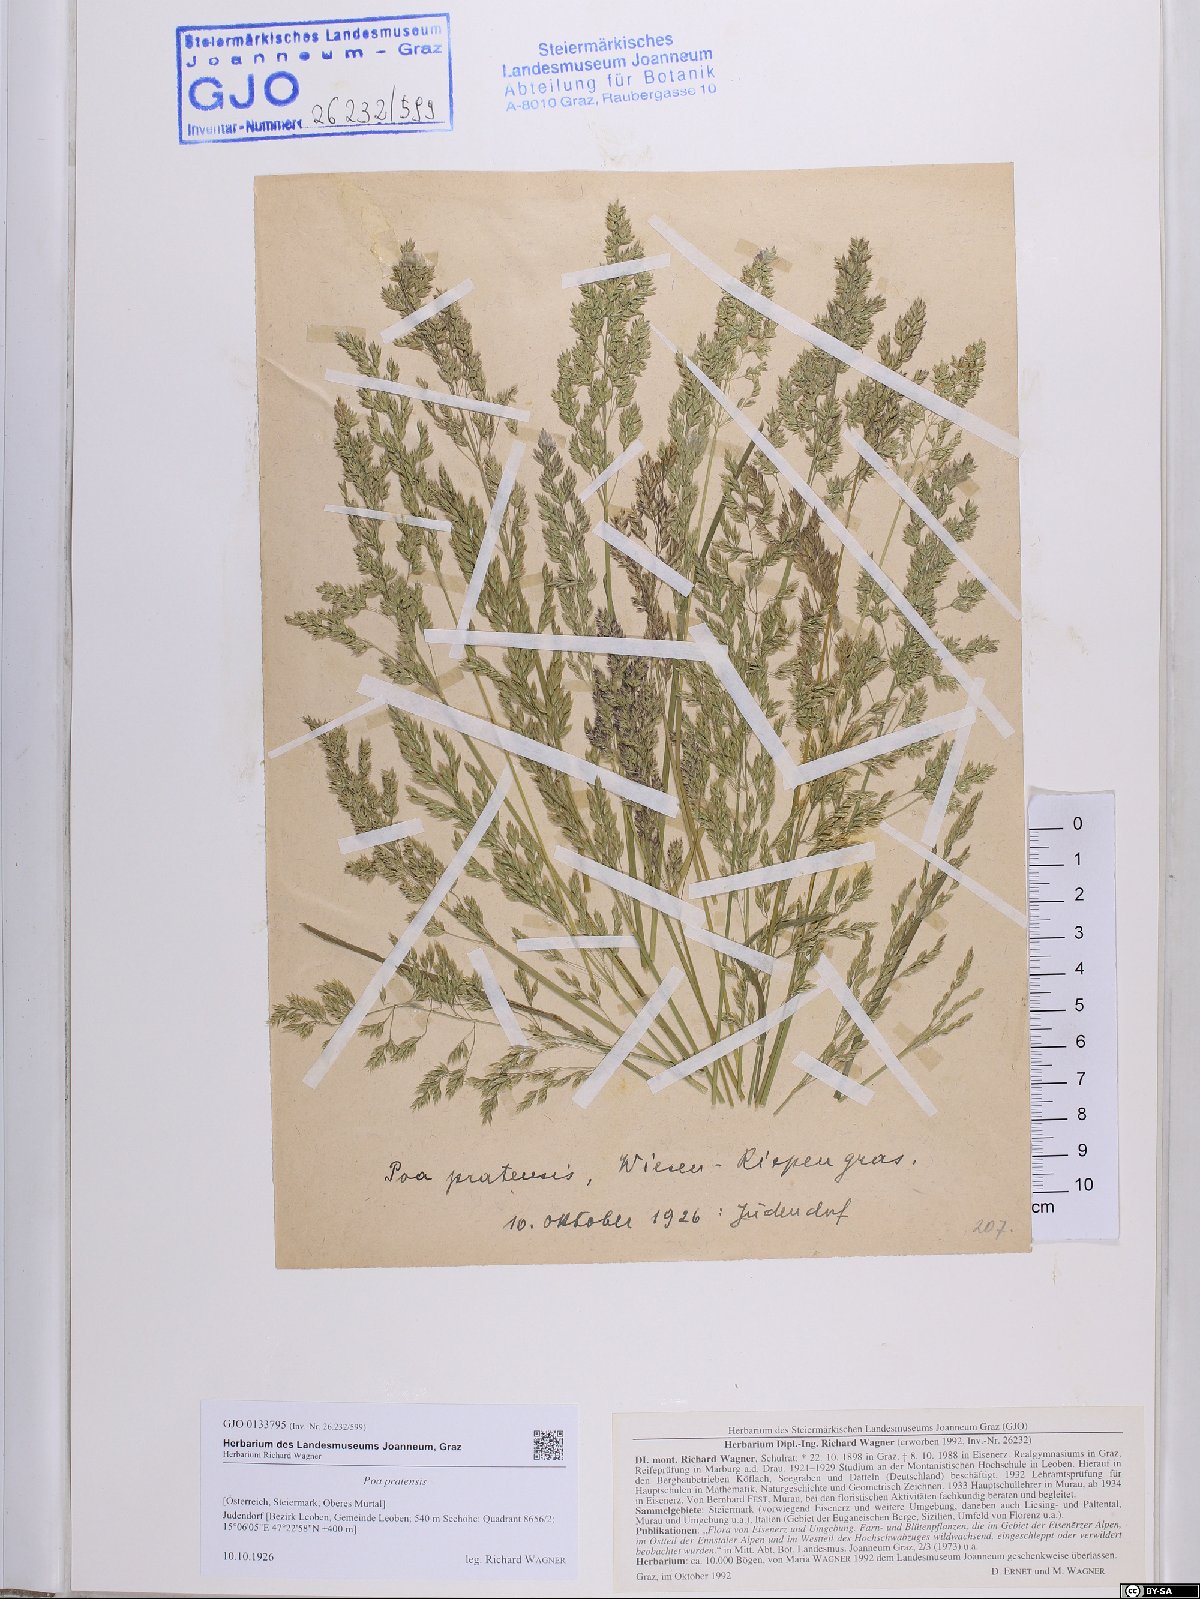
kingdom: Plantae
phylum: Tracheophyta
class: Liliopsida
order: Poales
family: Poaceae
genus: Poa
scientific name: Poa pratensis
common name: Kentucky bluegrass
